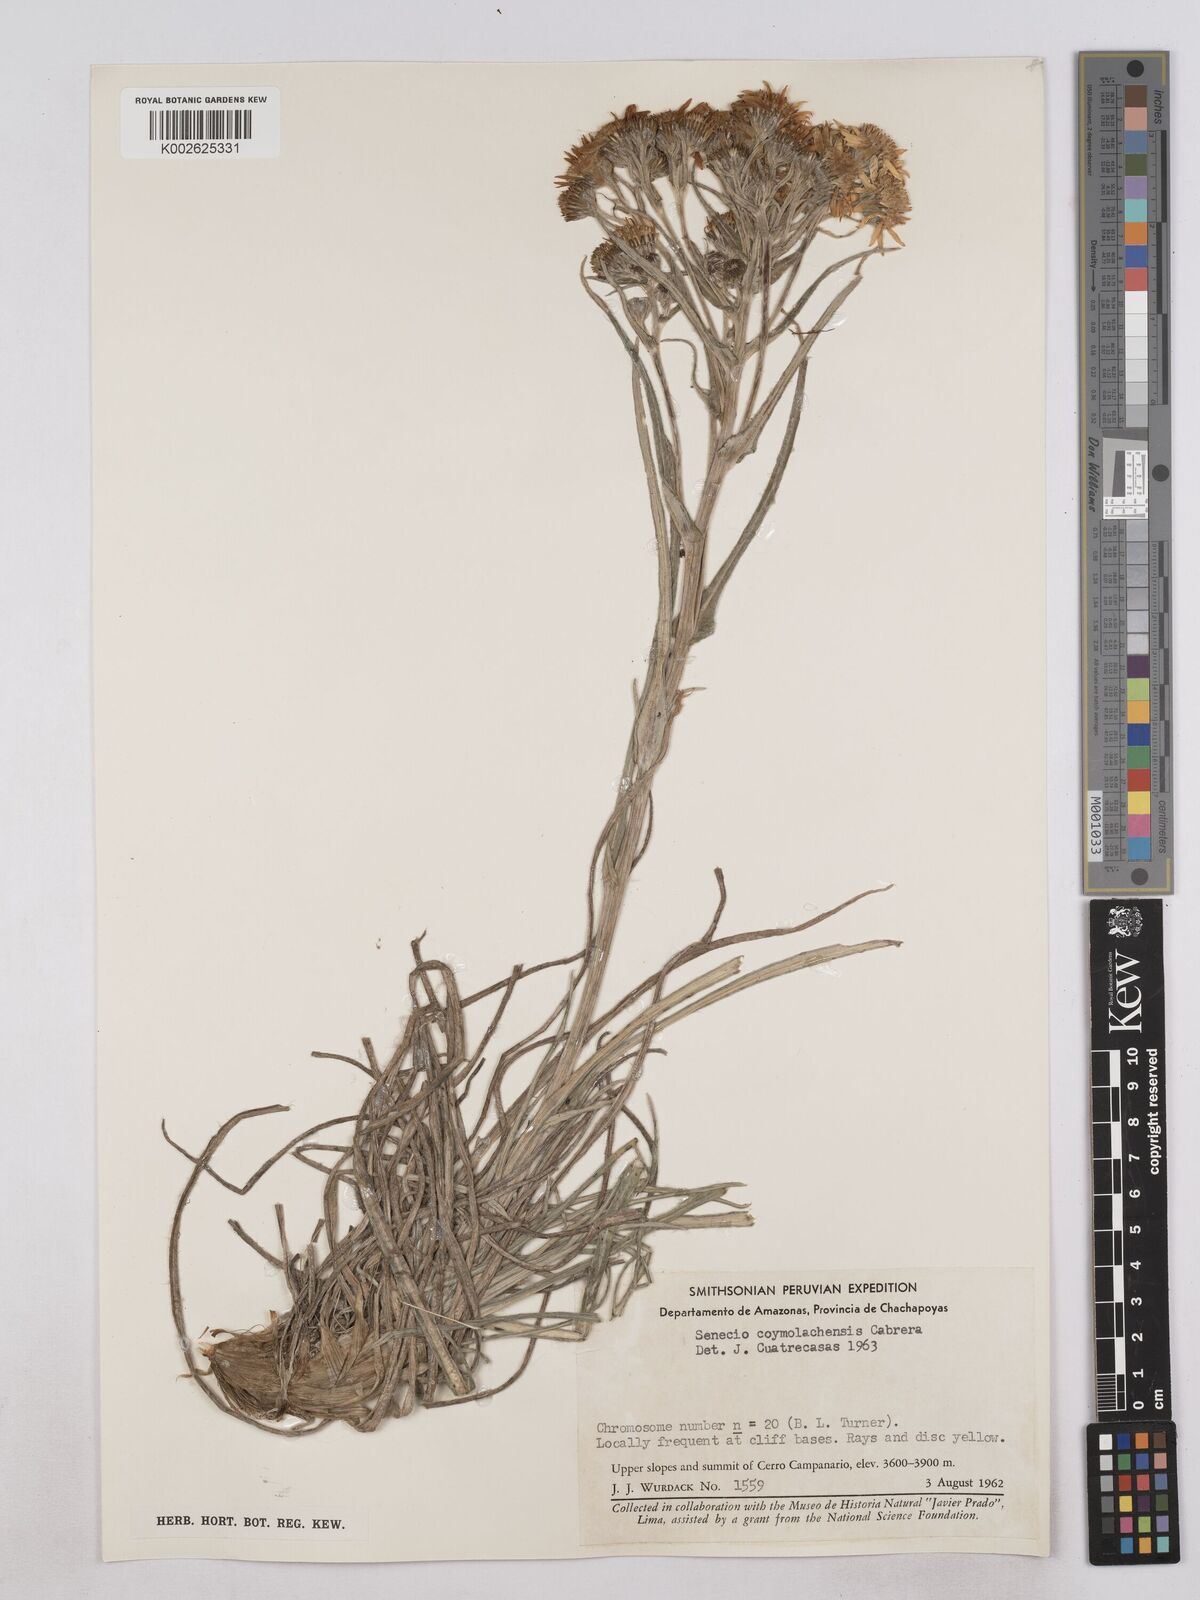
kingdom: Plantae
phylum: Tracheophyta
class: Magnoliopsida
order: Asterales
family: Asteraceae
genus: Senecio
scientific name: Senecio coymolachensis
